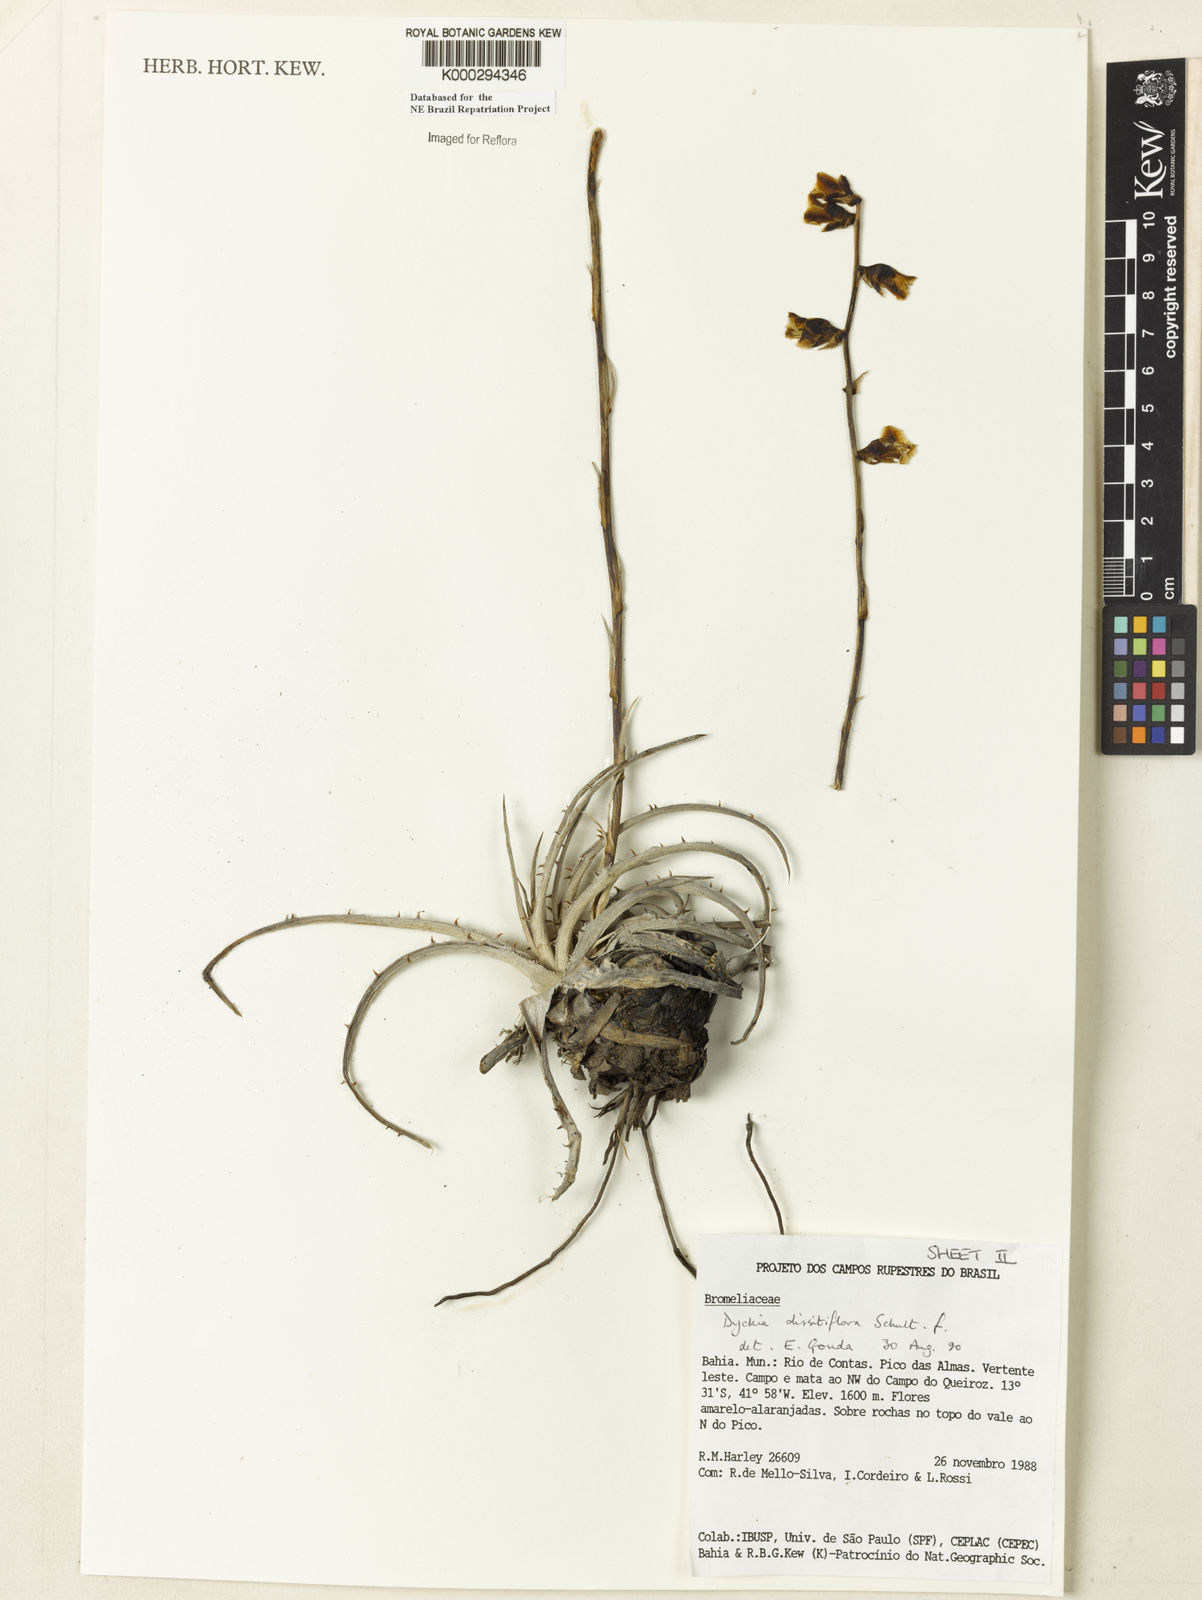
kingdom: Plantae
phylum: Tracheophyta
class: Liliopsida
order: Poales
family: Bromeliaceae
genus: Dyckia
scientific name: Dyckia dissitiflora
